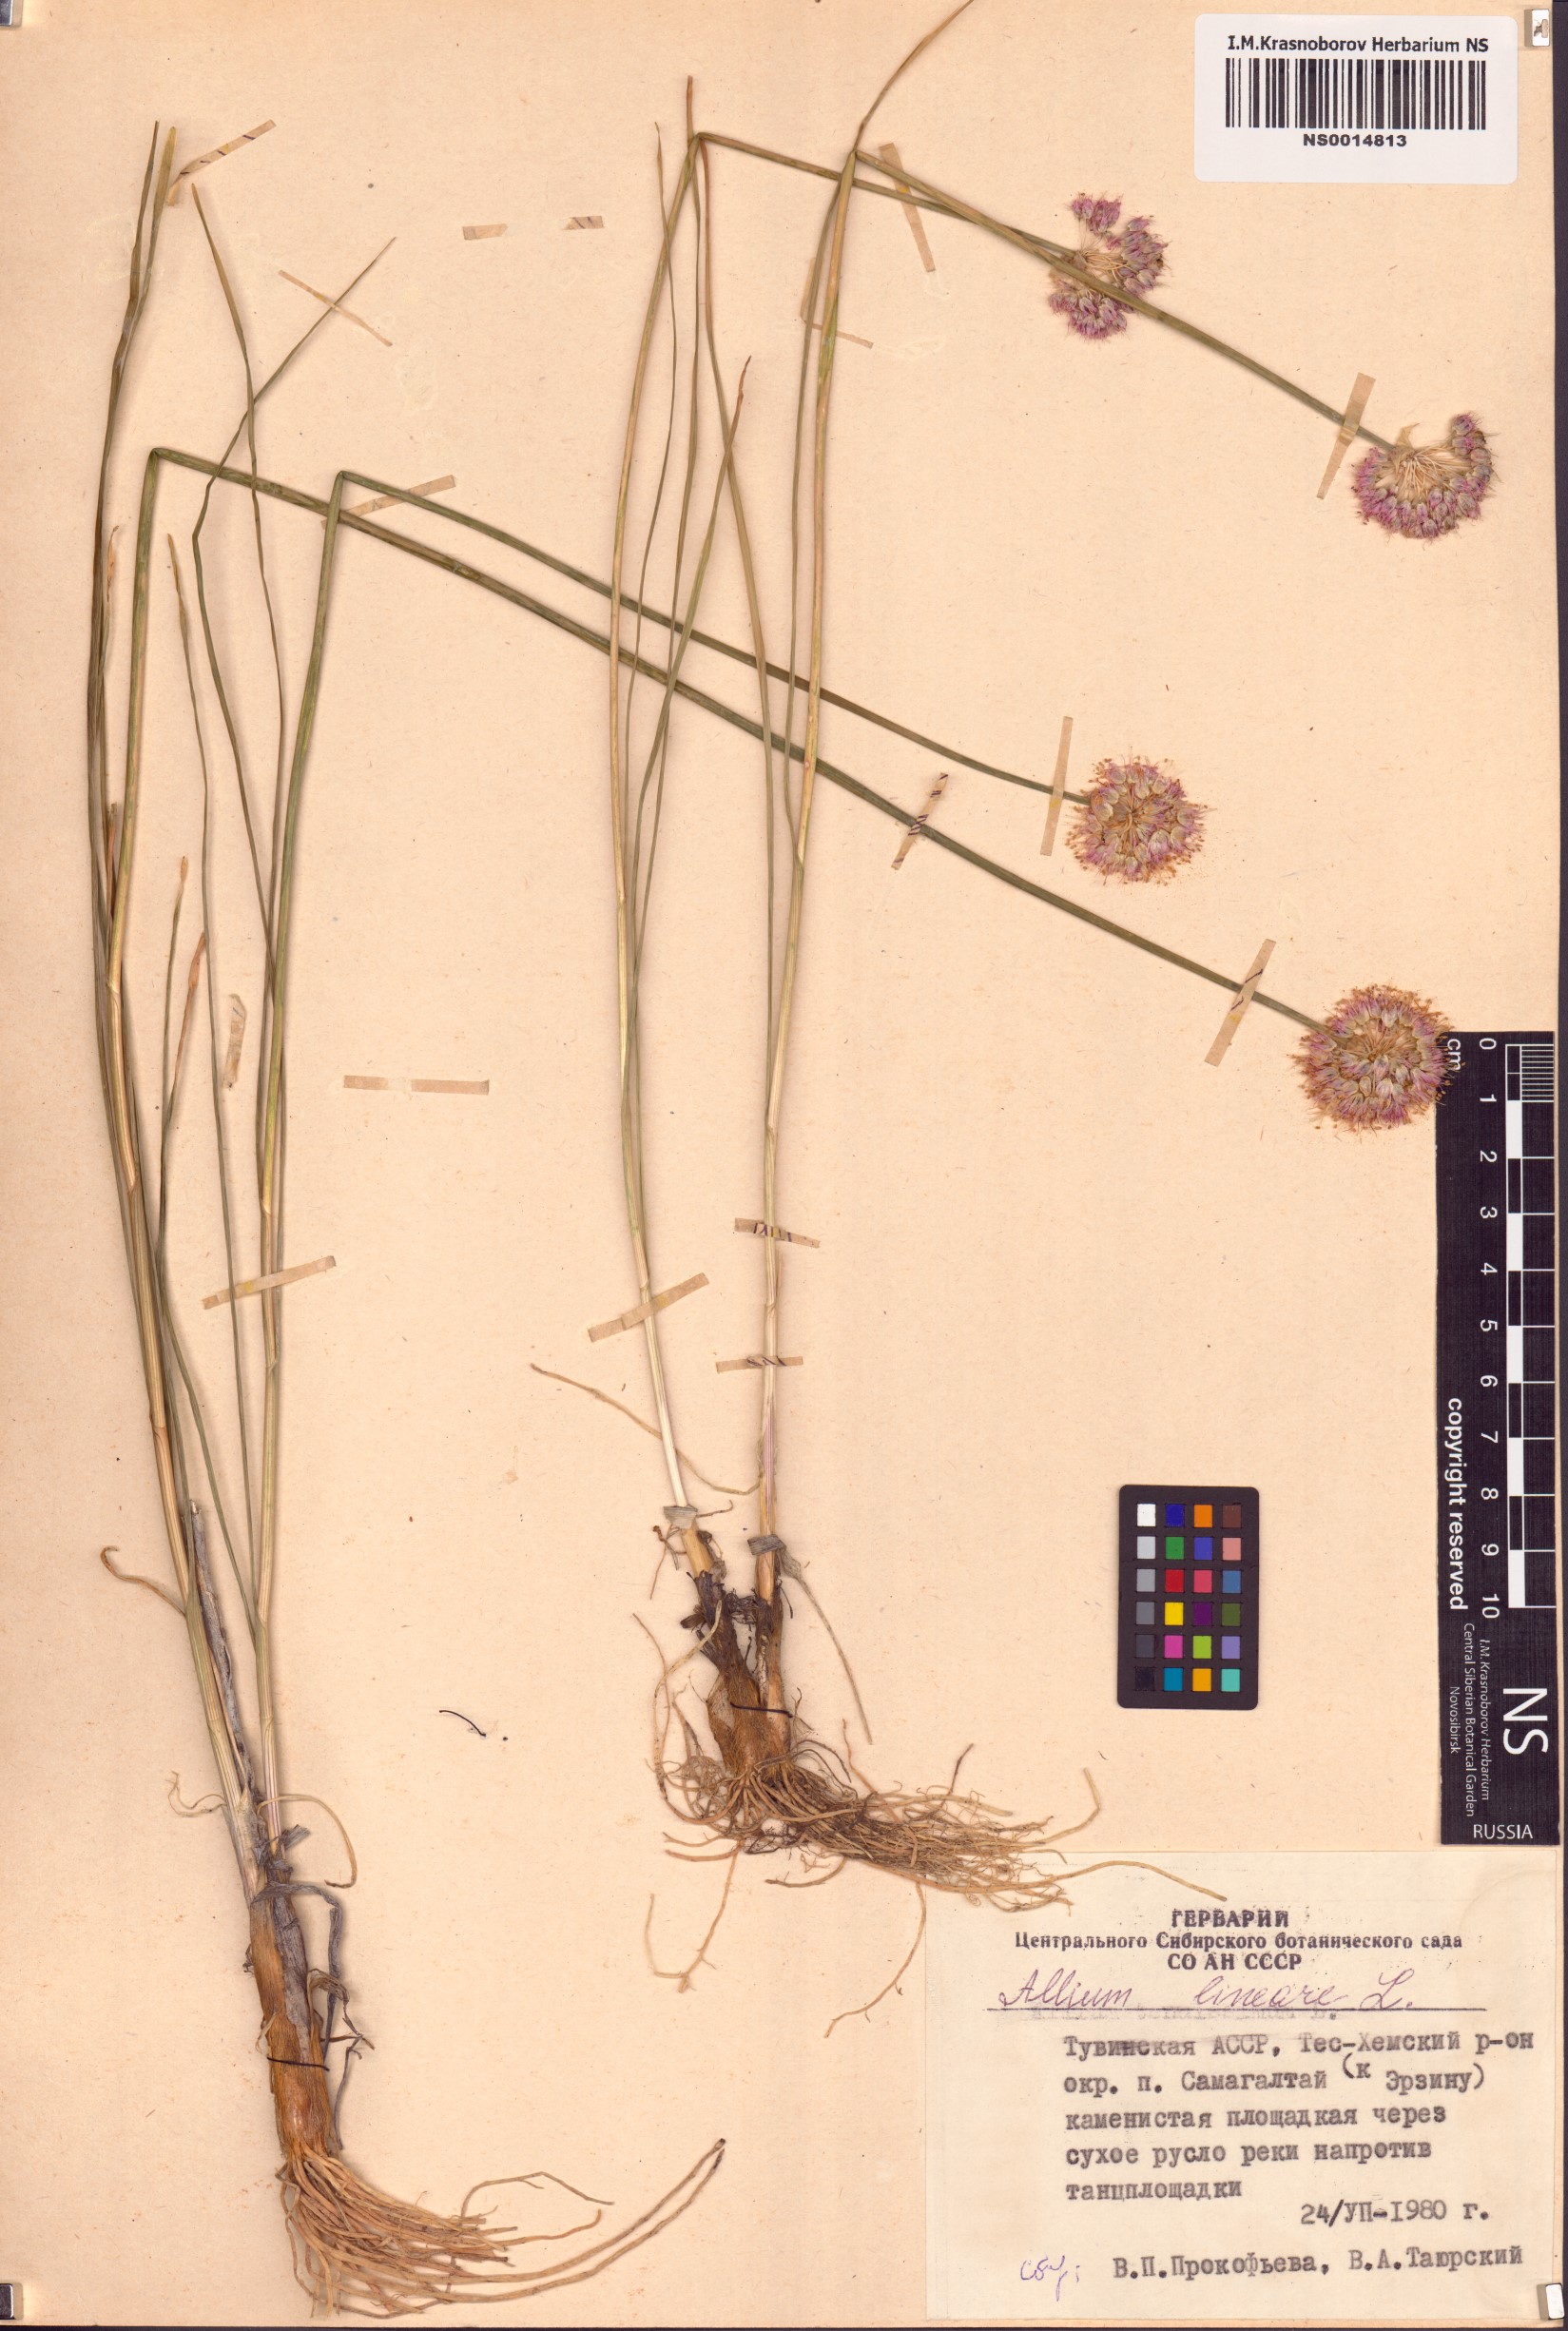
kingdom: Plantae
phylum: Tracheophyta
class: Liliopsida
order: Asparagales
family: Amaryllidaceae
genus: Allium
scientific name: Allium lineare
